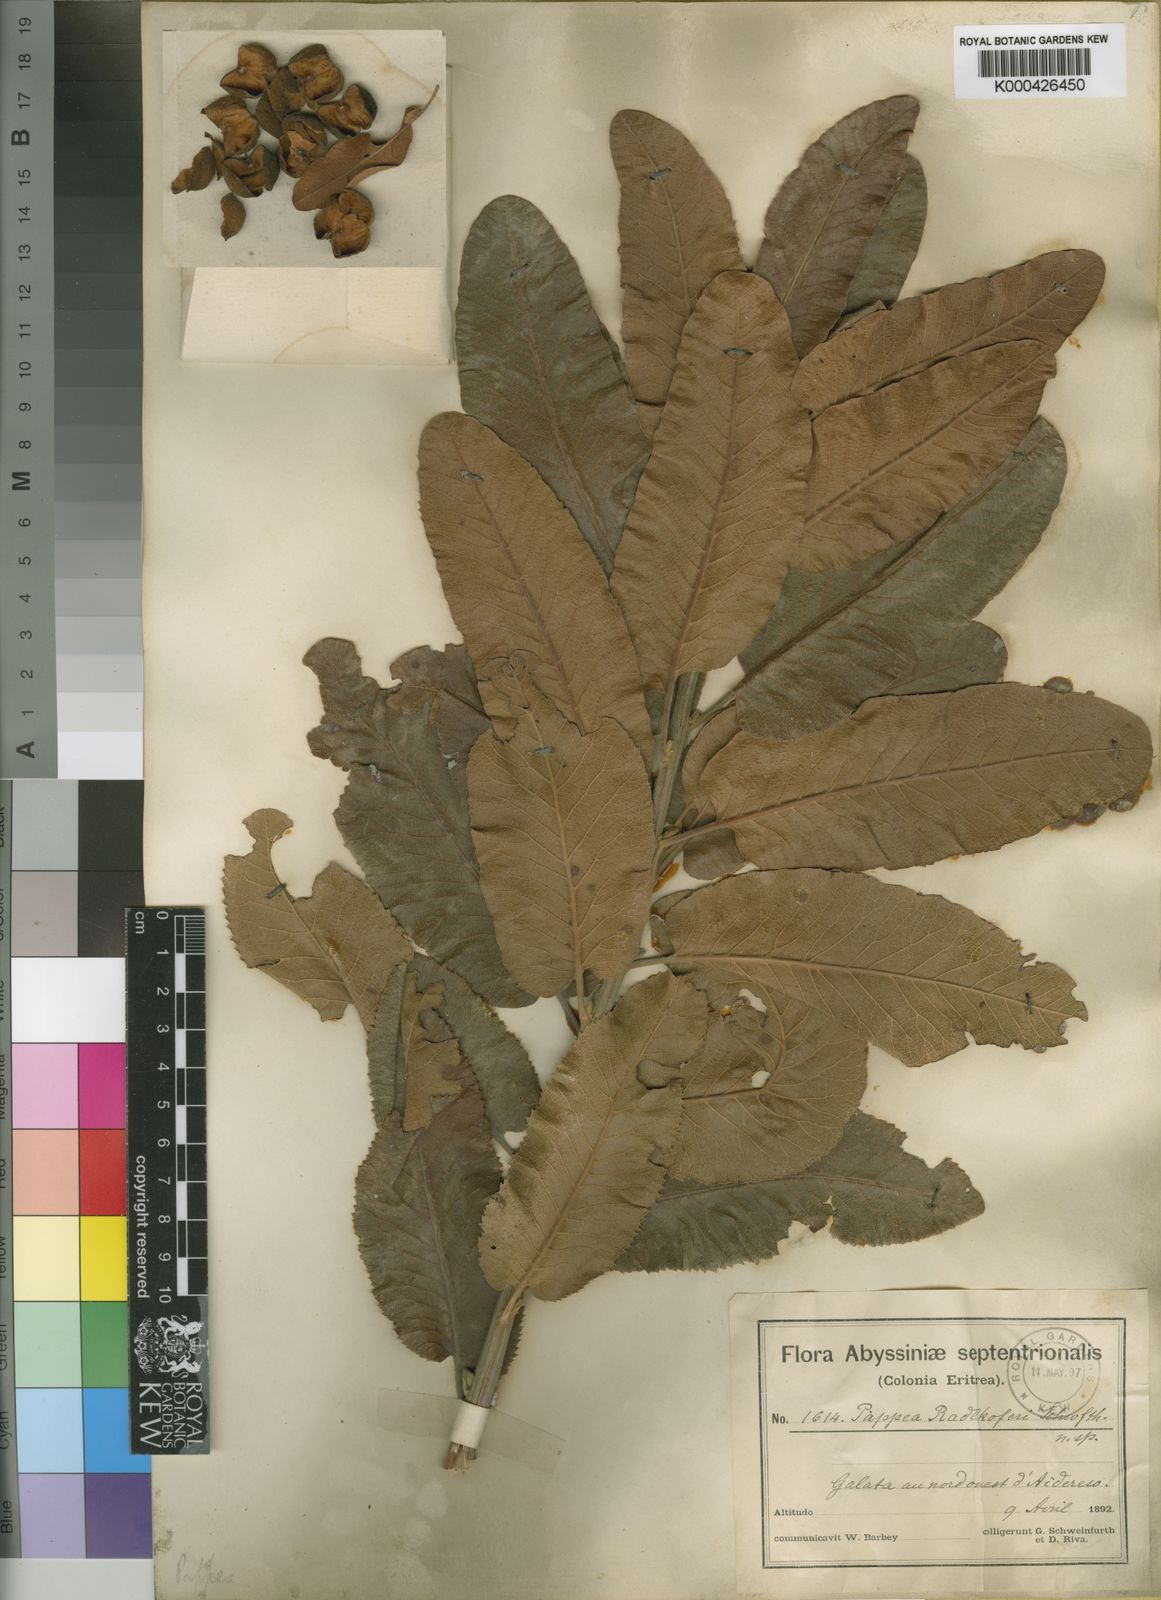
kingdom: Plantae
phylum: Tracheophyta
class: Magnoliopsida
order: Sapindales
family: Sapindaceae
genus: Pappea
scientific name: Pappea capensis
